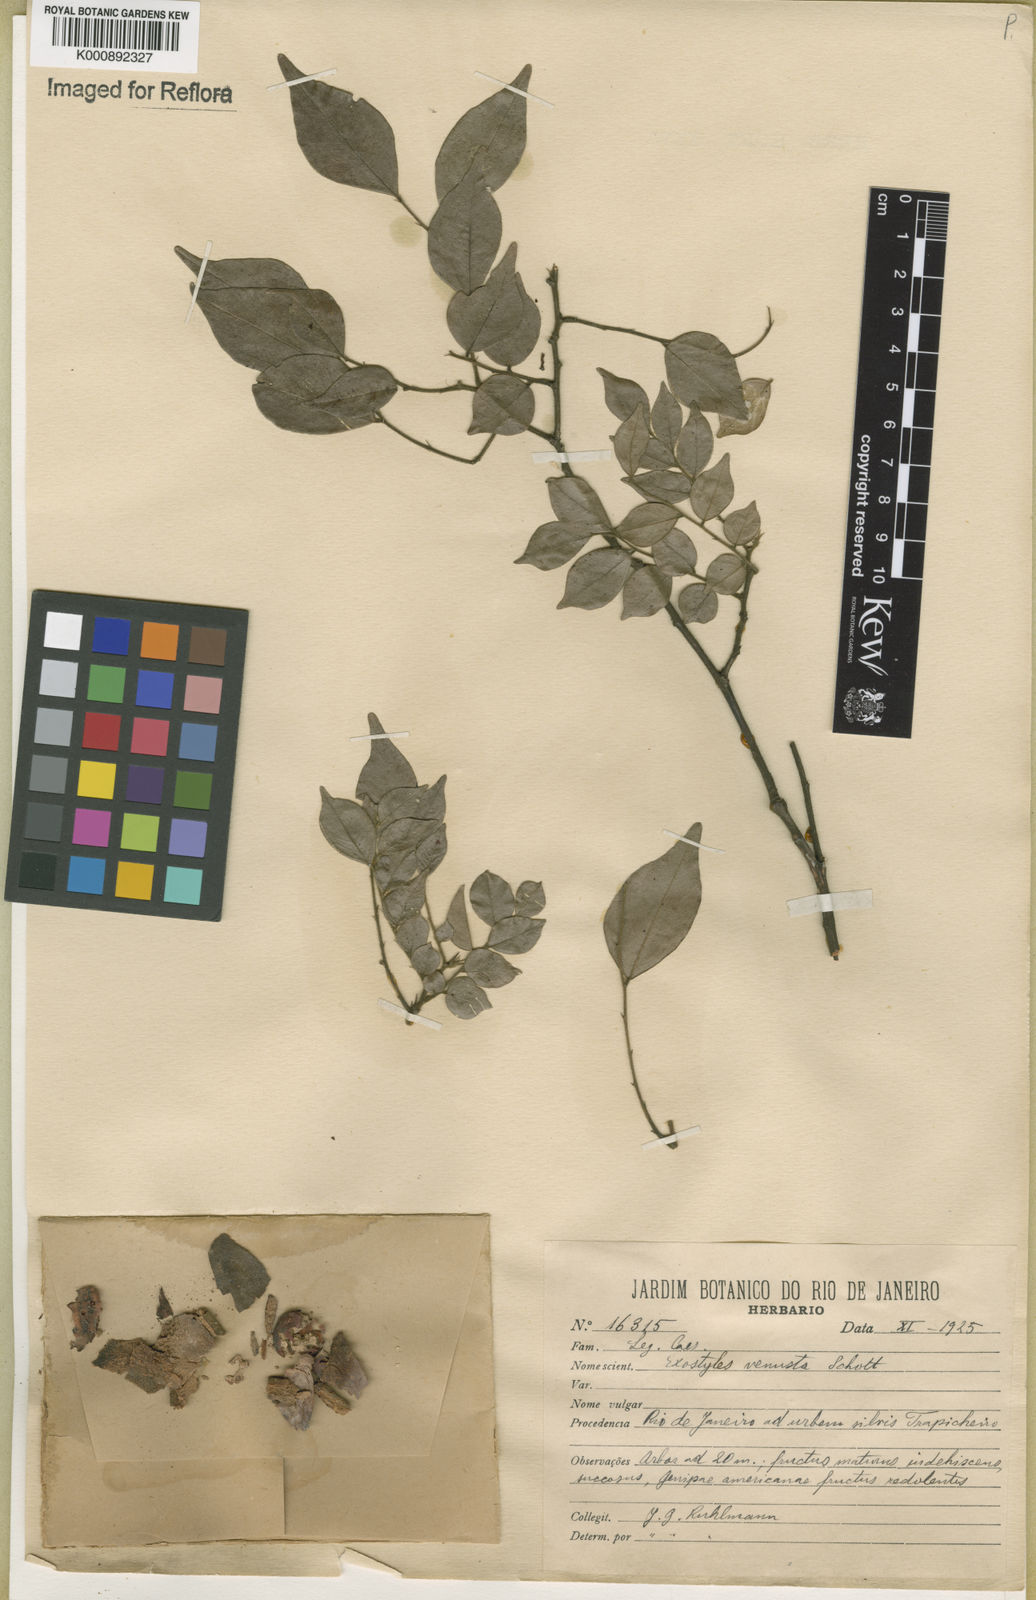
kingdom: Plantae
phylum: Tracheophyta
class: Magnoliopsida
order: Fabales
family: Fabaceae
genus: Exostyles
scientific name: Exostyles godoyensis
